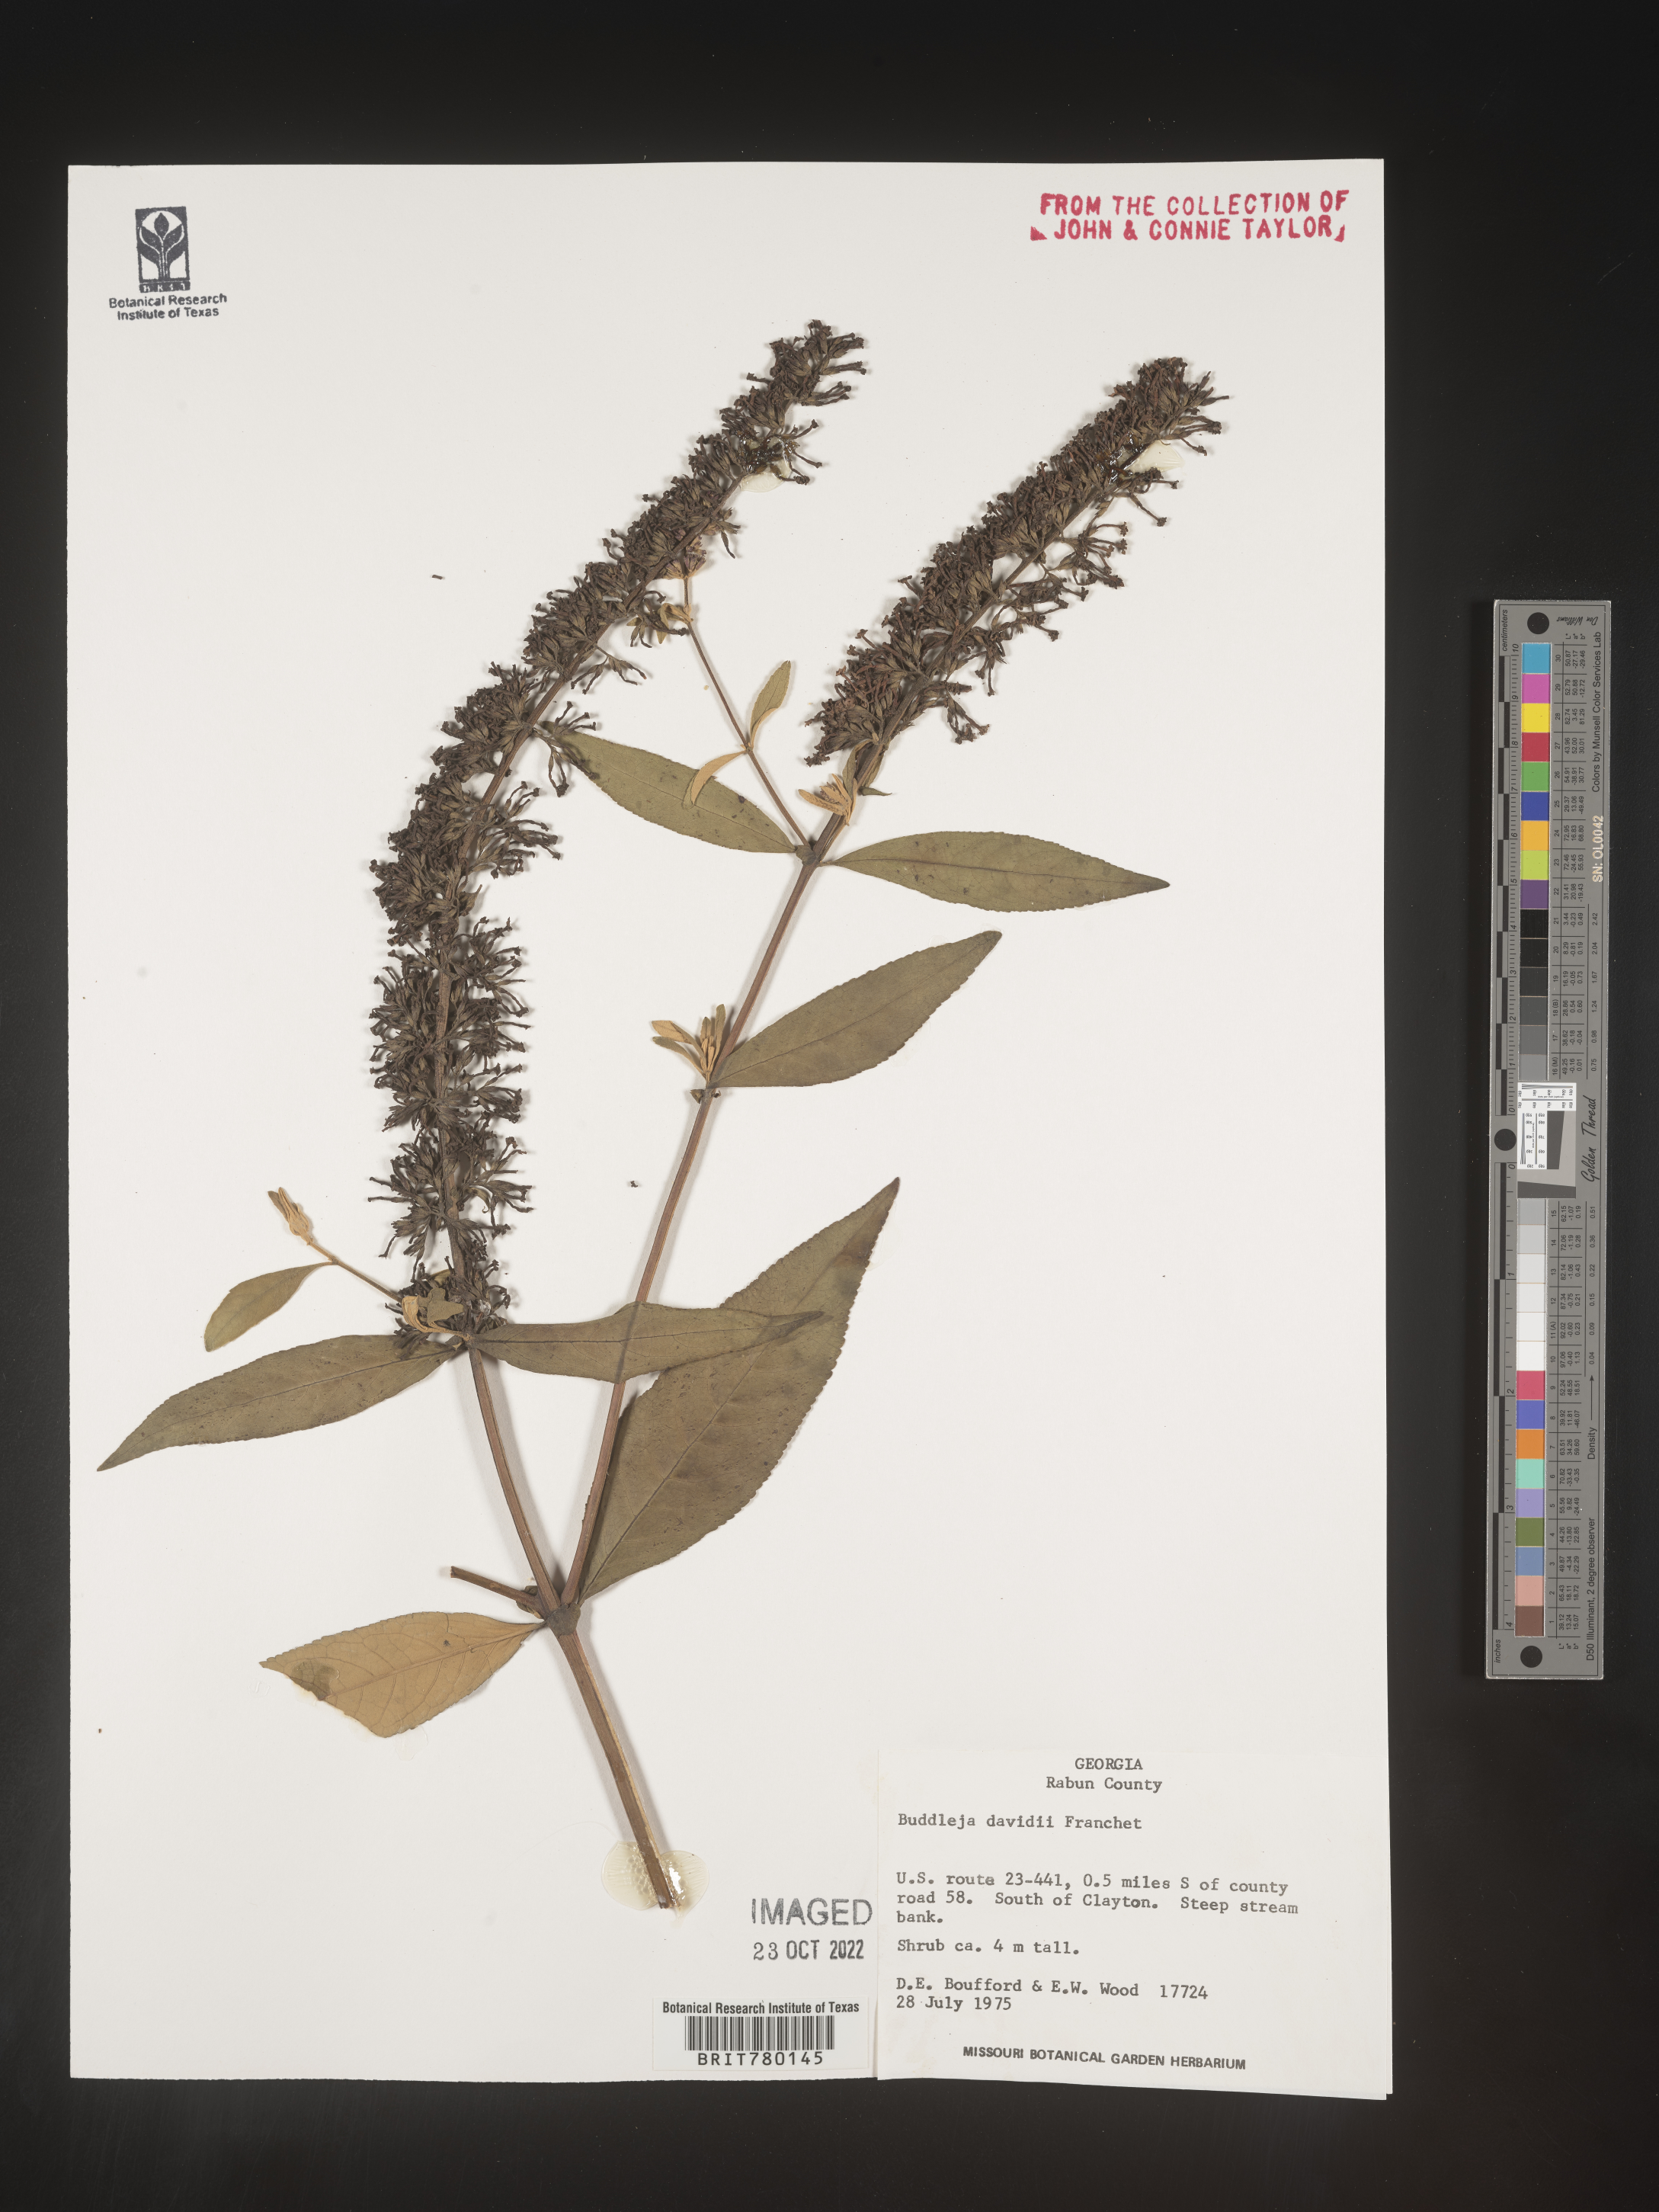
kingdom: Plantae
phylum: Tracheophyta
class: Magnoliopsida
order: Lamiales
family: Scrophulariaceae
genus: Buddleja
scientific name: Buddleja
